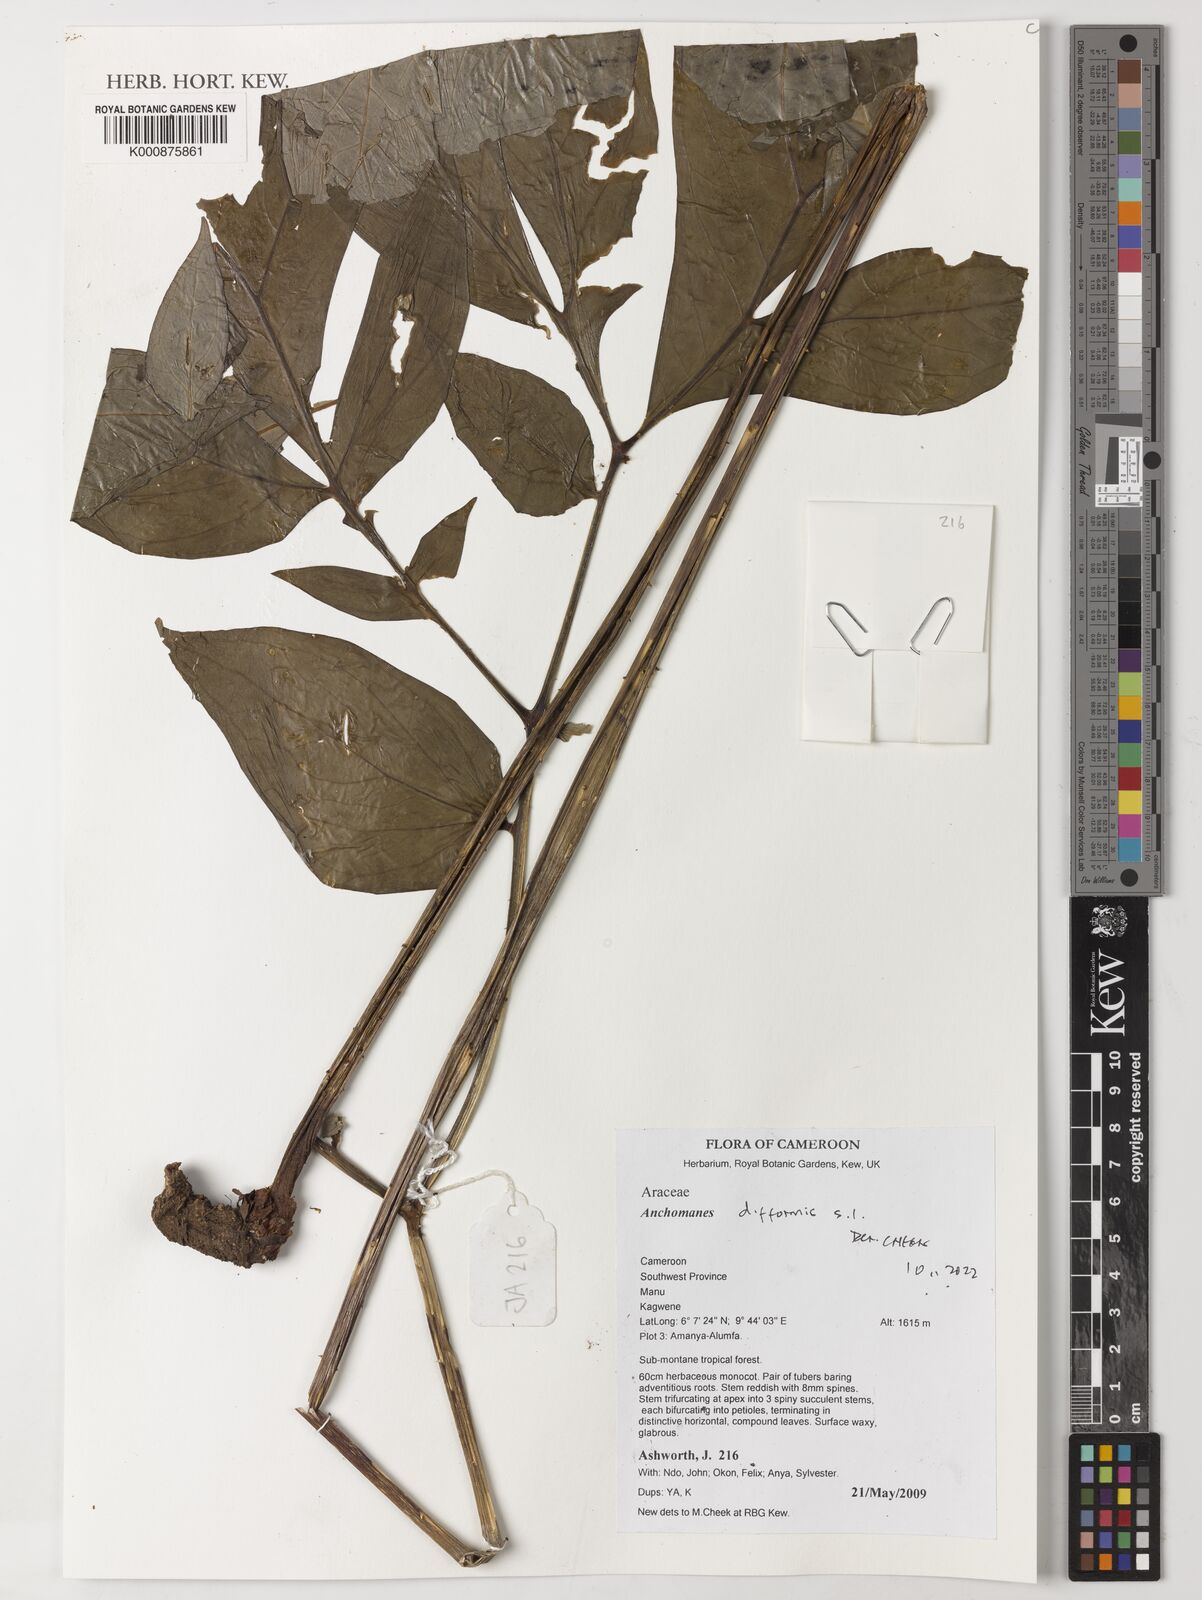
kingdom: Plantae
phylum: Tracheophyta
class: Liliopsida
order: Alismatales
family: Araceae
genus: Anchomanes
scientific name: Anchomanes difformis
